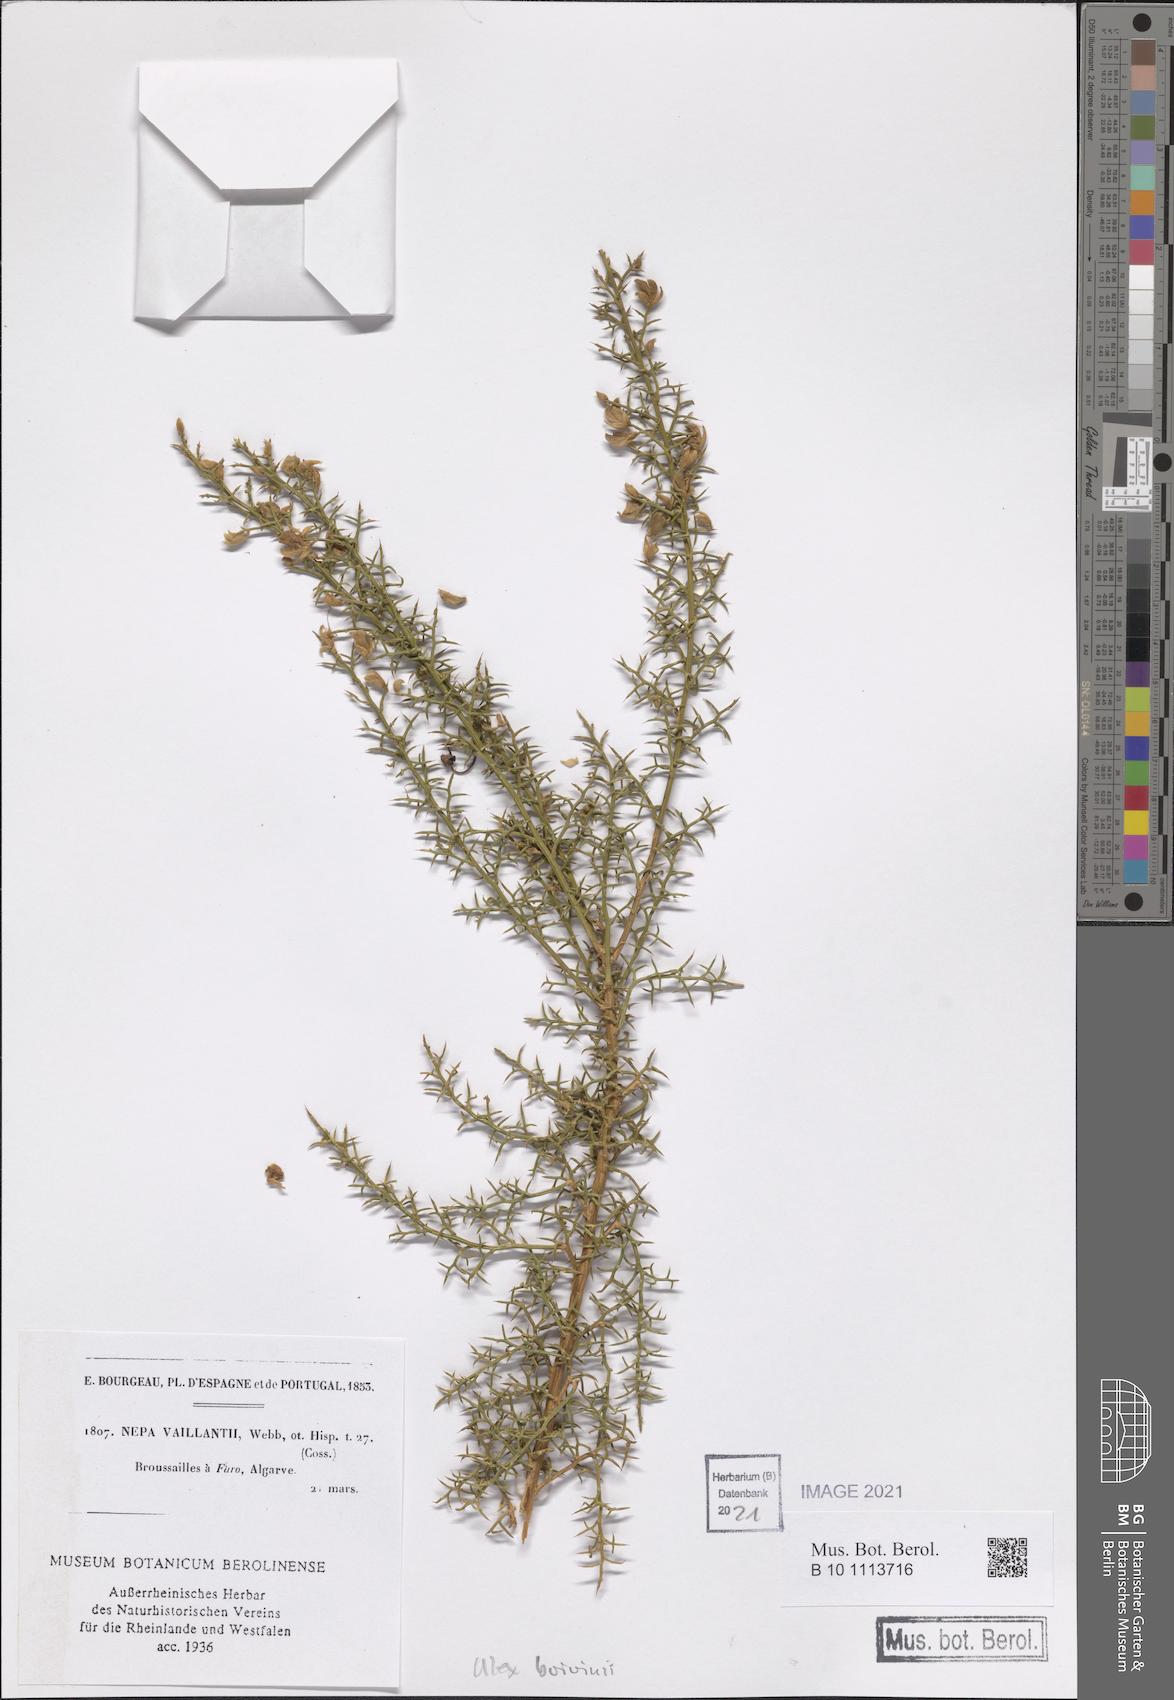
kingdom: Plantae
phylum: Tracheophyta
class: Magnoliopsida
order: Fabales
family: Fabaceae
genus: Stauracanthus
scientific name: Stauracanthus boivinii
